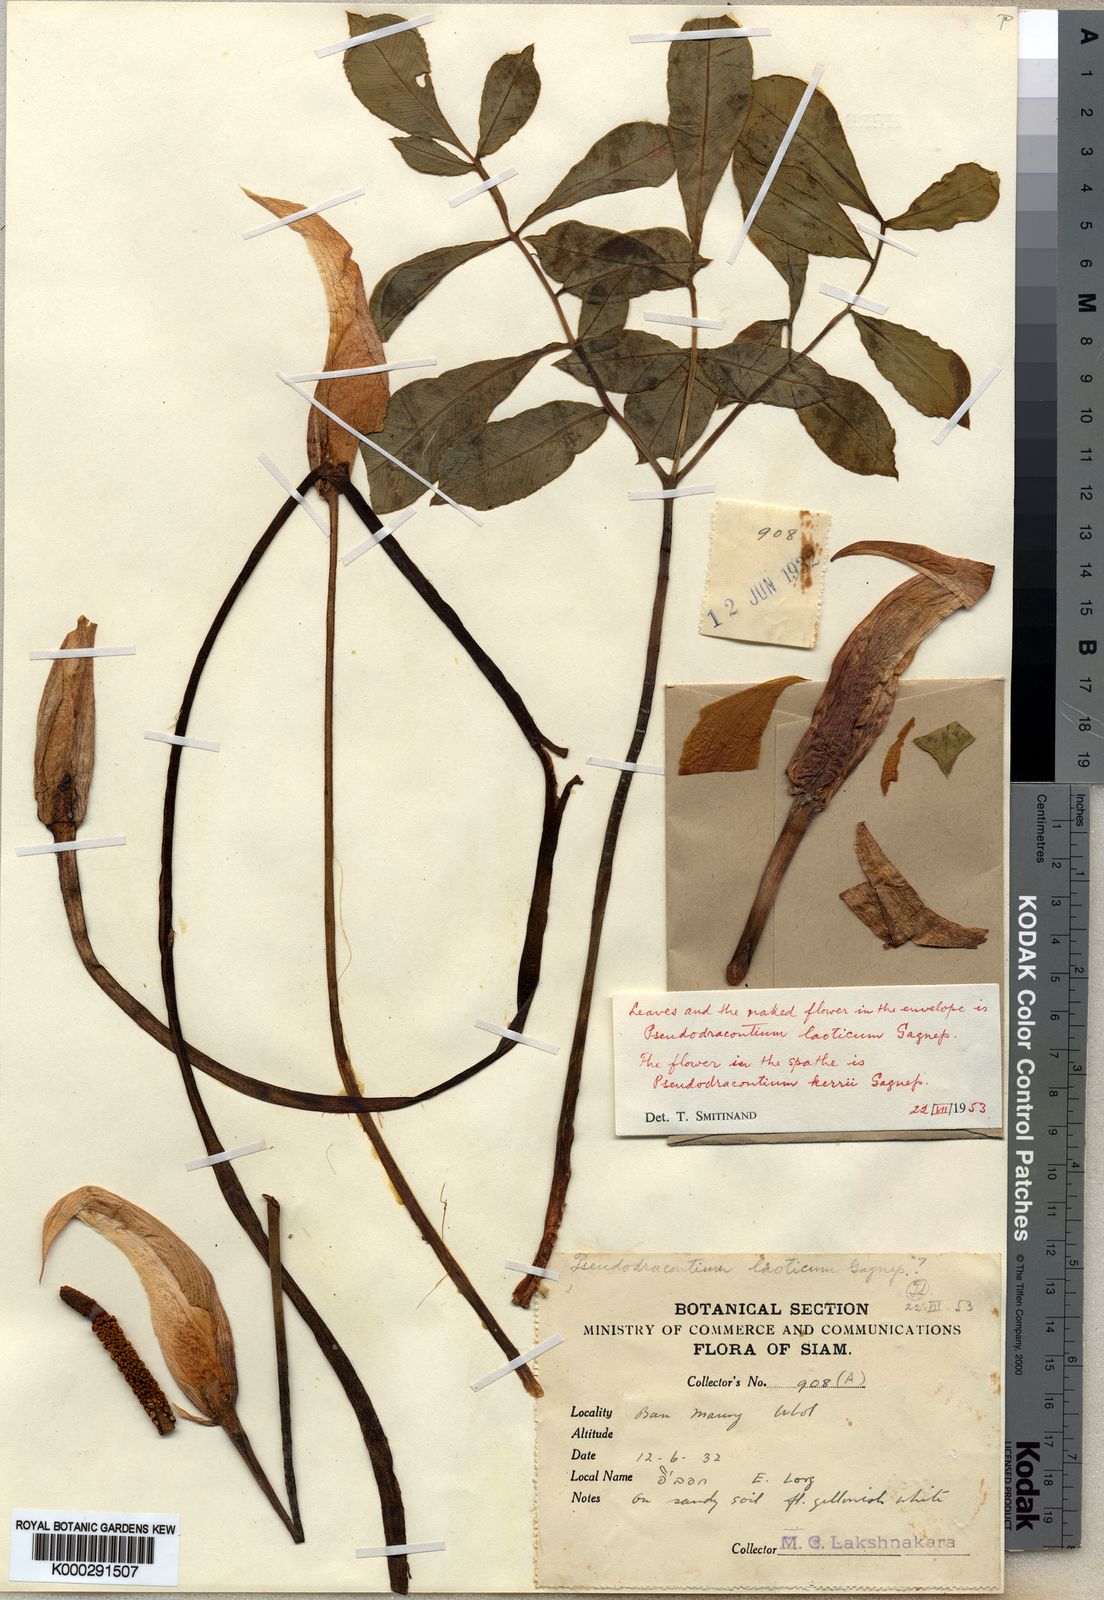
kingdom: Plantae
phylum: Tracheophyta
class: Liliopsida
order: Alismatales
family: Araceae
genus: Amorphophallus
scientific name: Amorphophallus harmandii
